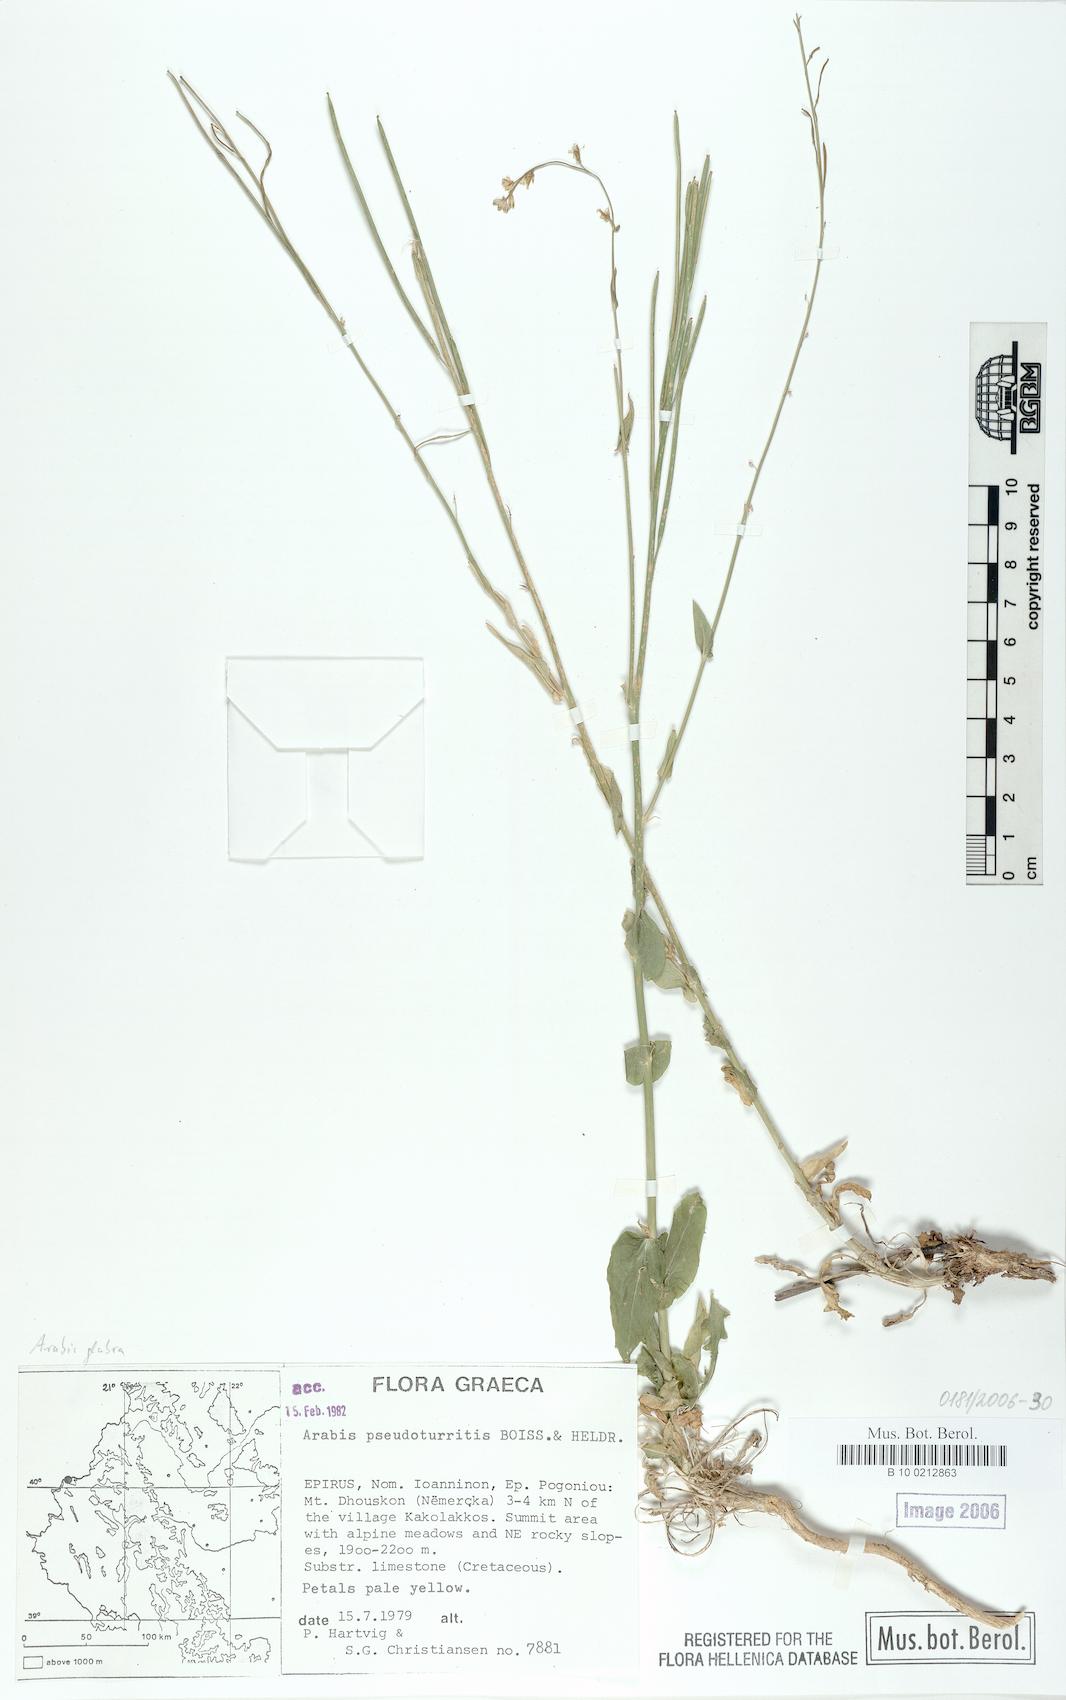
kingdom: Plantae
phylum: Tracheophyta
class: Magnoliopsida
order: Brassicales
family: Brassicaceae
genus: Turritis
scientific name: Turritis glabra
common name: Tower rockcress
